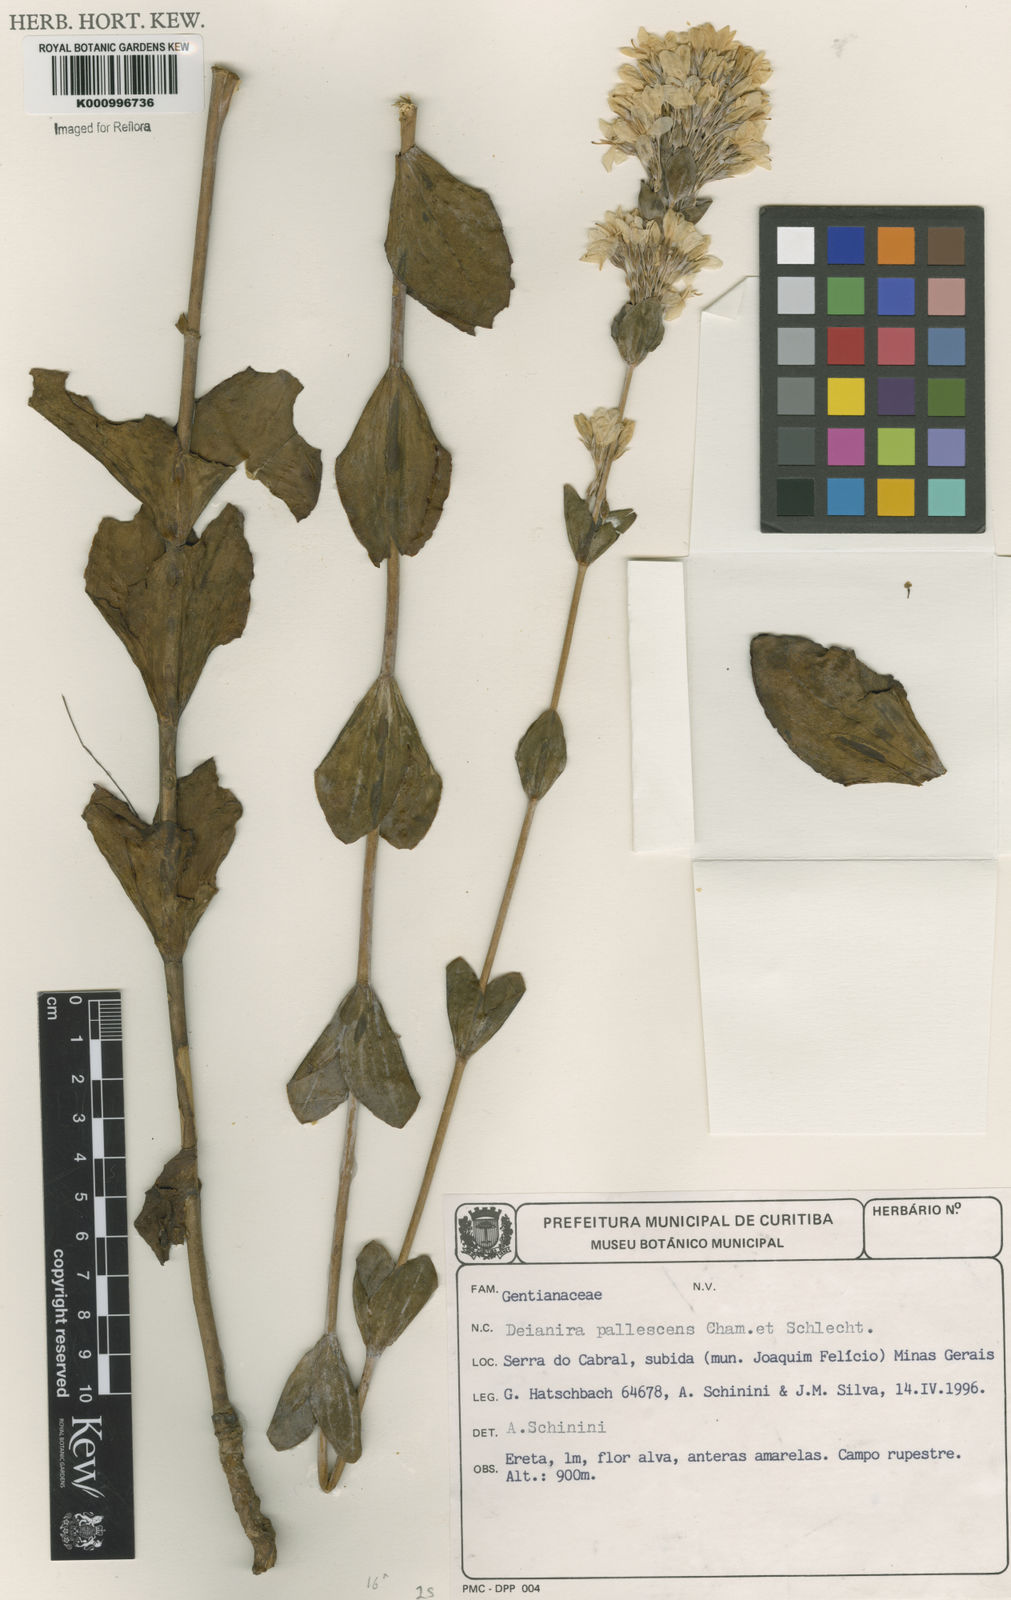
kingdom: Plantae
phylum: Tracheophyta
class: Magnoliopsida
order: Gentianales
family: Gentianaceae
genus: Deianira
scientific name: Deianira pallescens
